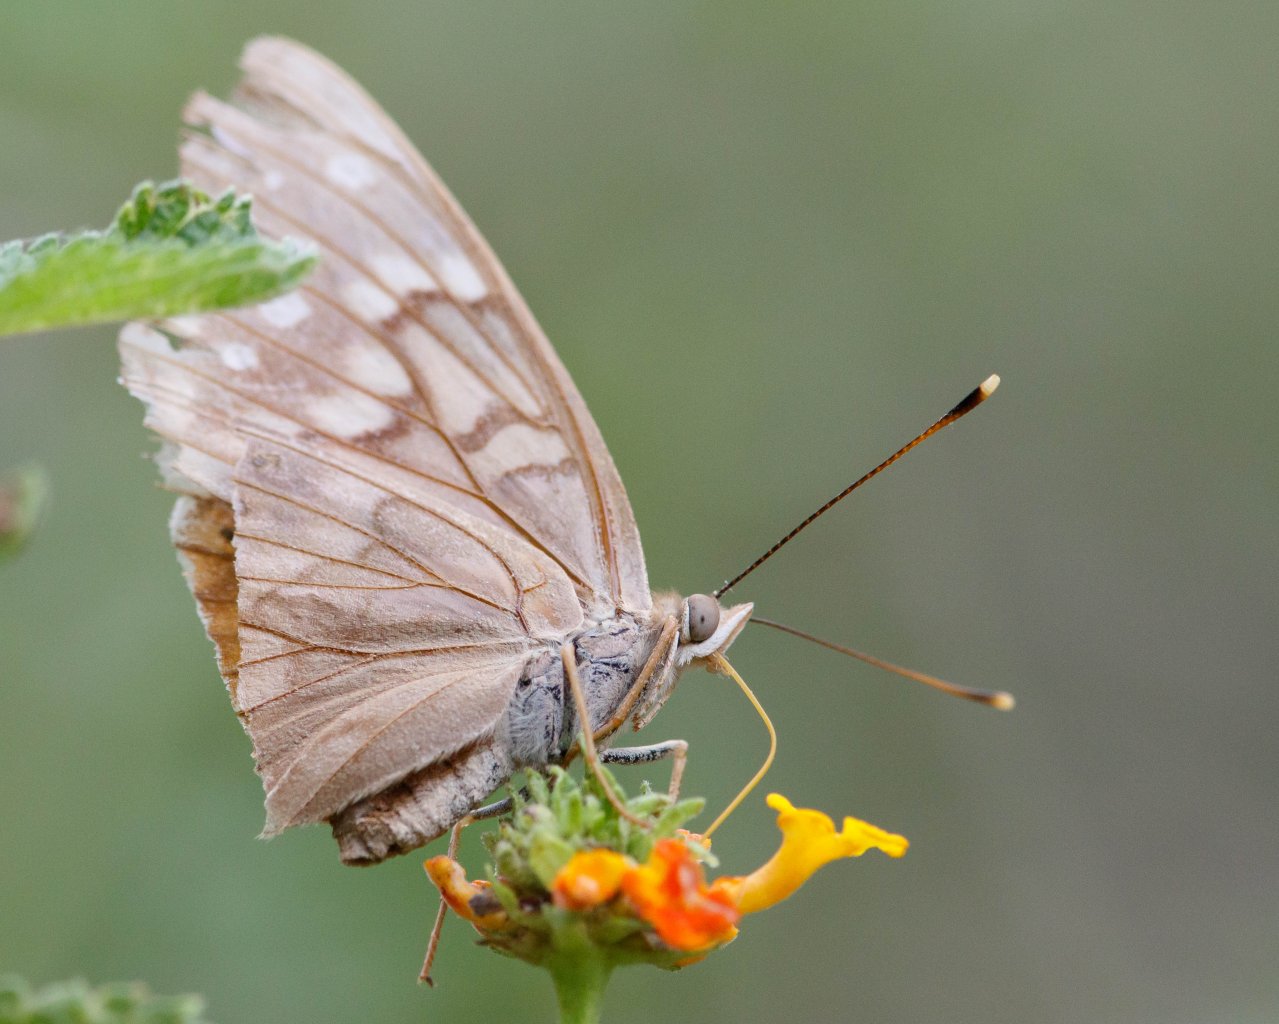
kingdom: Animalia
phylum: Arthropoda
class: Insecta
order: Lepidoptera
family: Nymphalidae
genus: Asterocampa
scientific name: Asterocampa clyton
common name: Tawny Emperor
